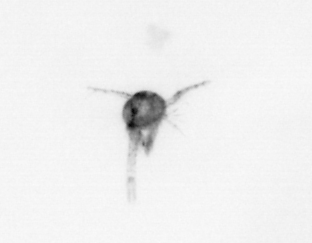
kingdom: Animalia
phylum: Arthropoda
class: Copepoda
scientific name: Copepoda
